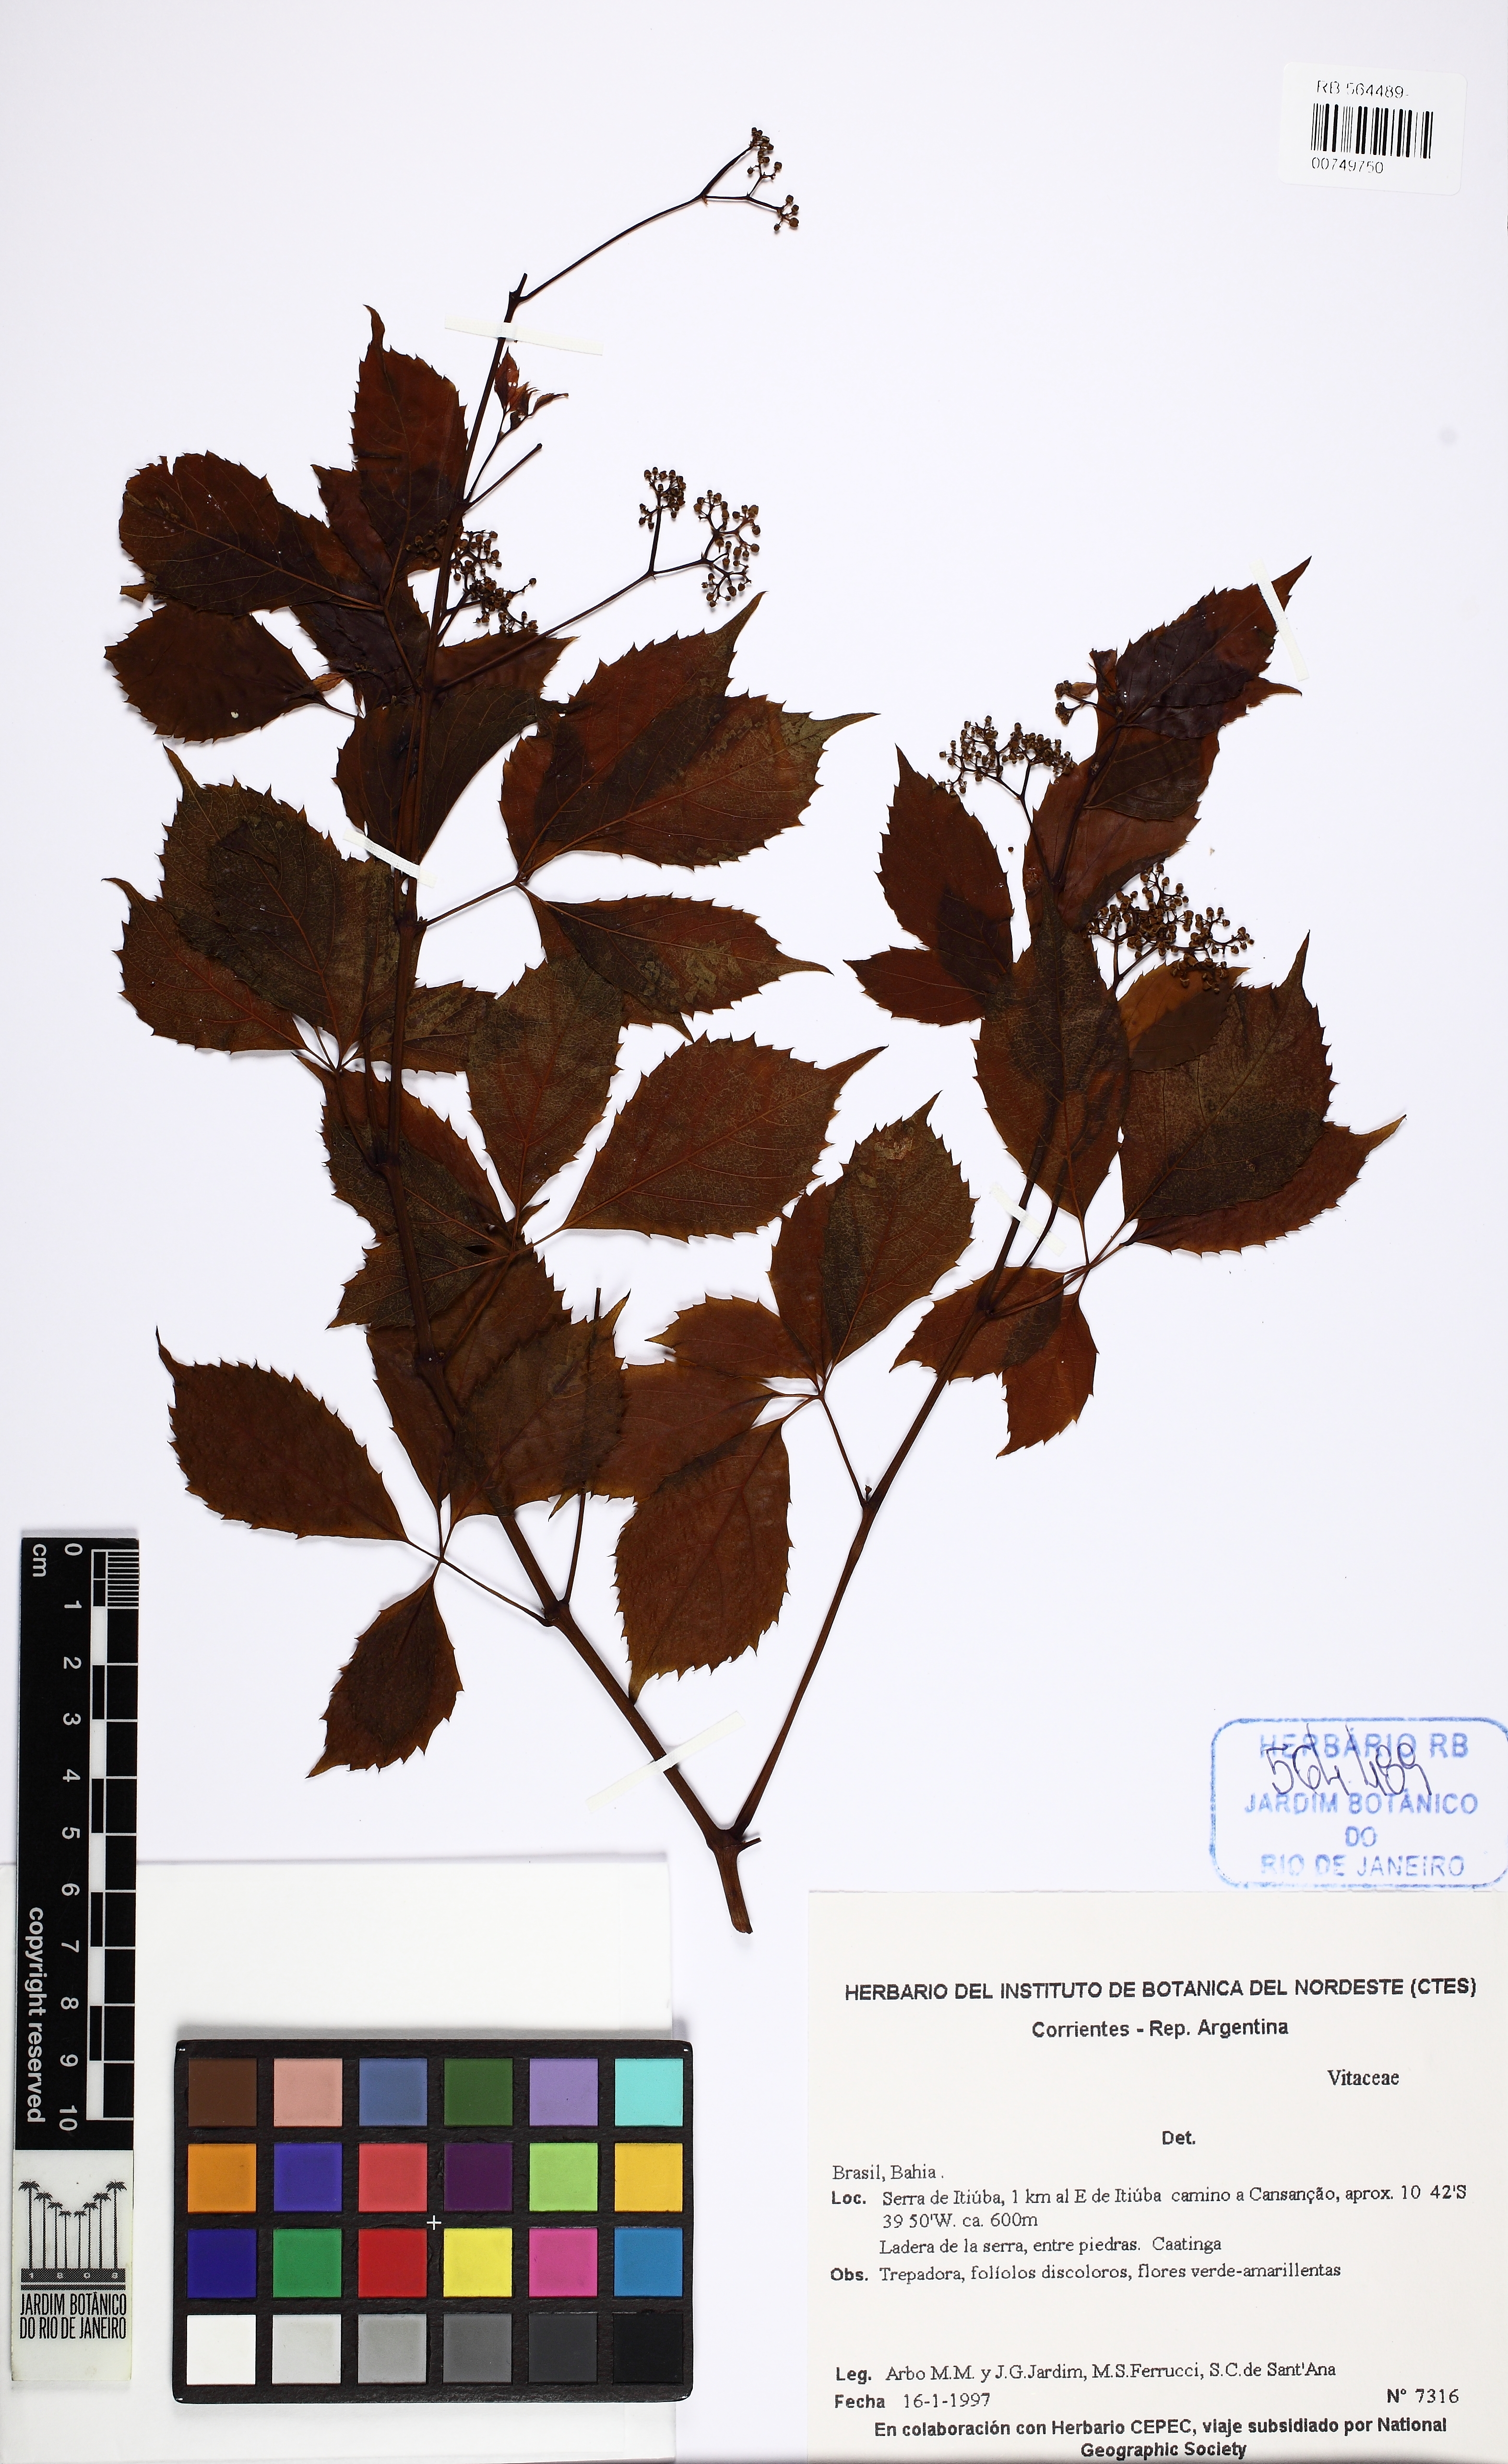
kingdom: Plantae
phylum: Tracheophyta
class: Magnoliopsida
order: Vitales
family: Vitaceae
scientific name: Vitaceae
